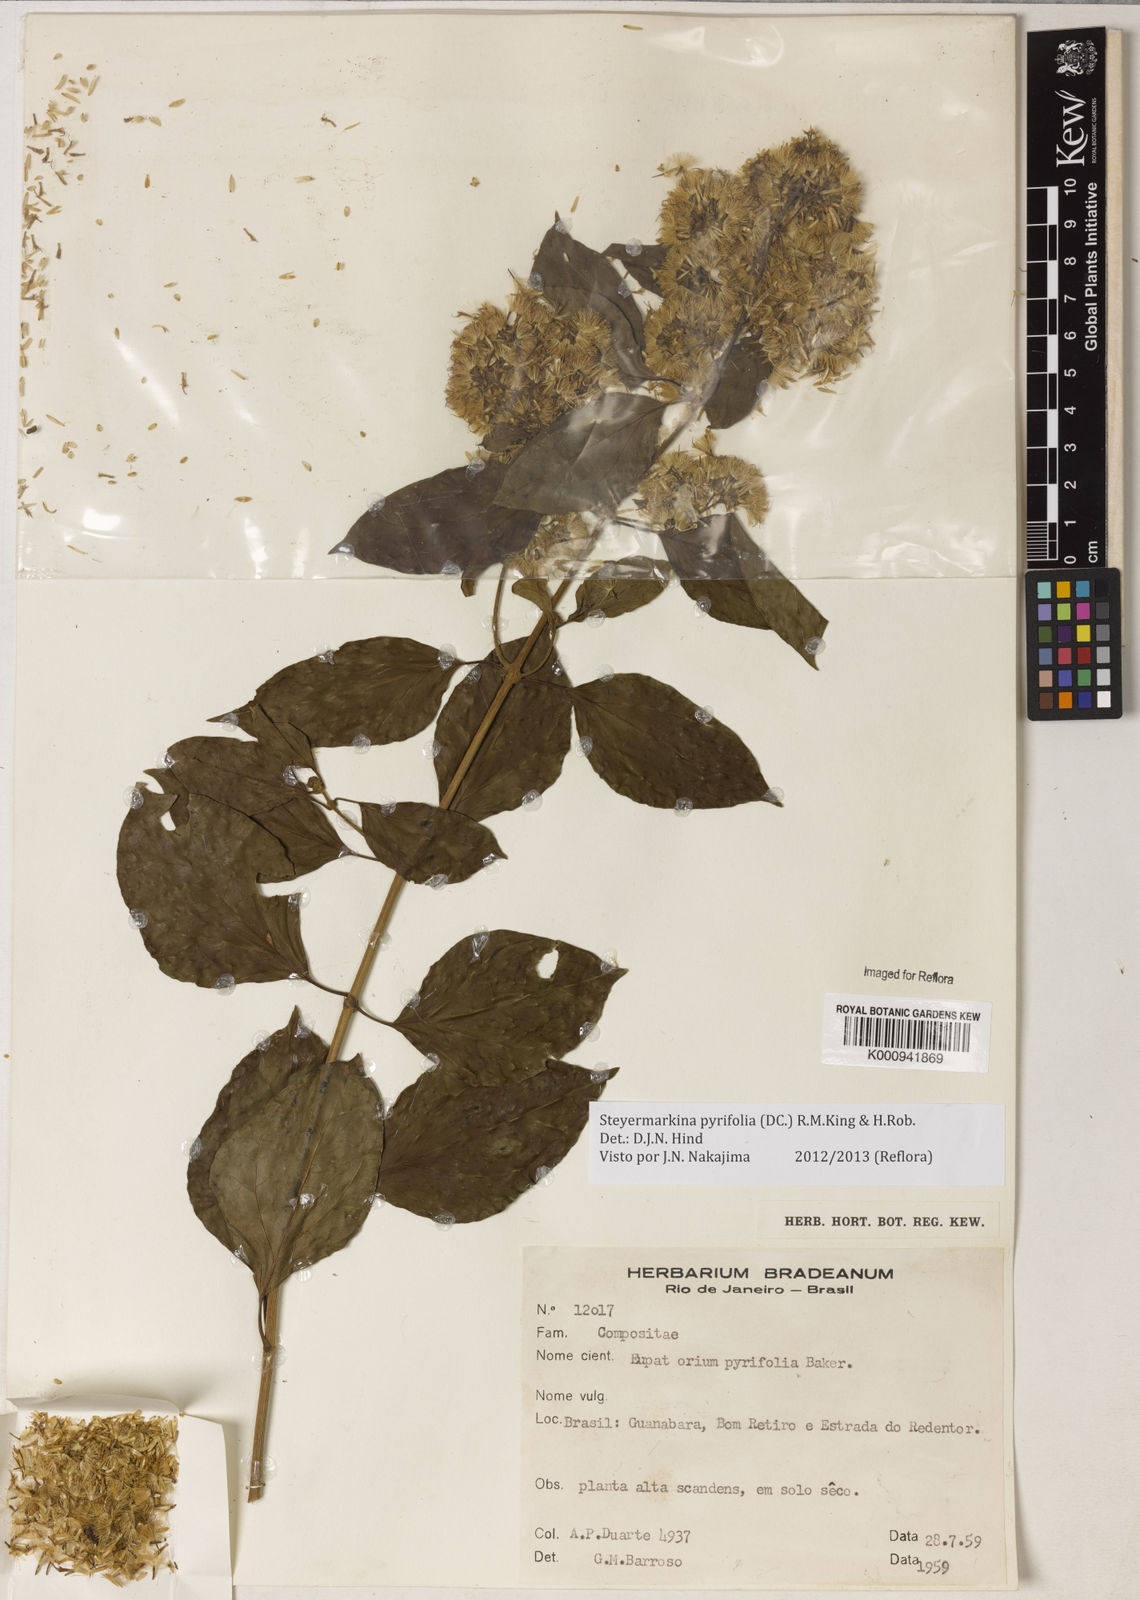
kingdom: Plantae
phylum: Tracheophyta
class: Magnoliopsida
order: Asterales
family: Asteraceae
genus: Steyermarkina
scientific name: Steyermarkina pyrifolia
